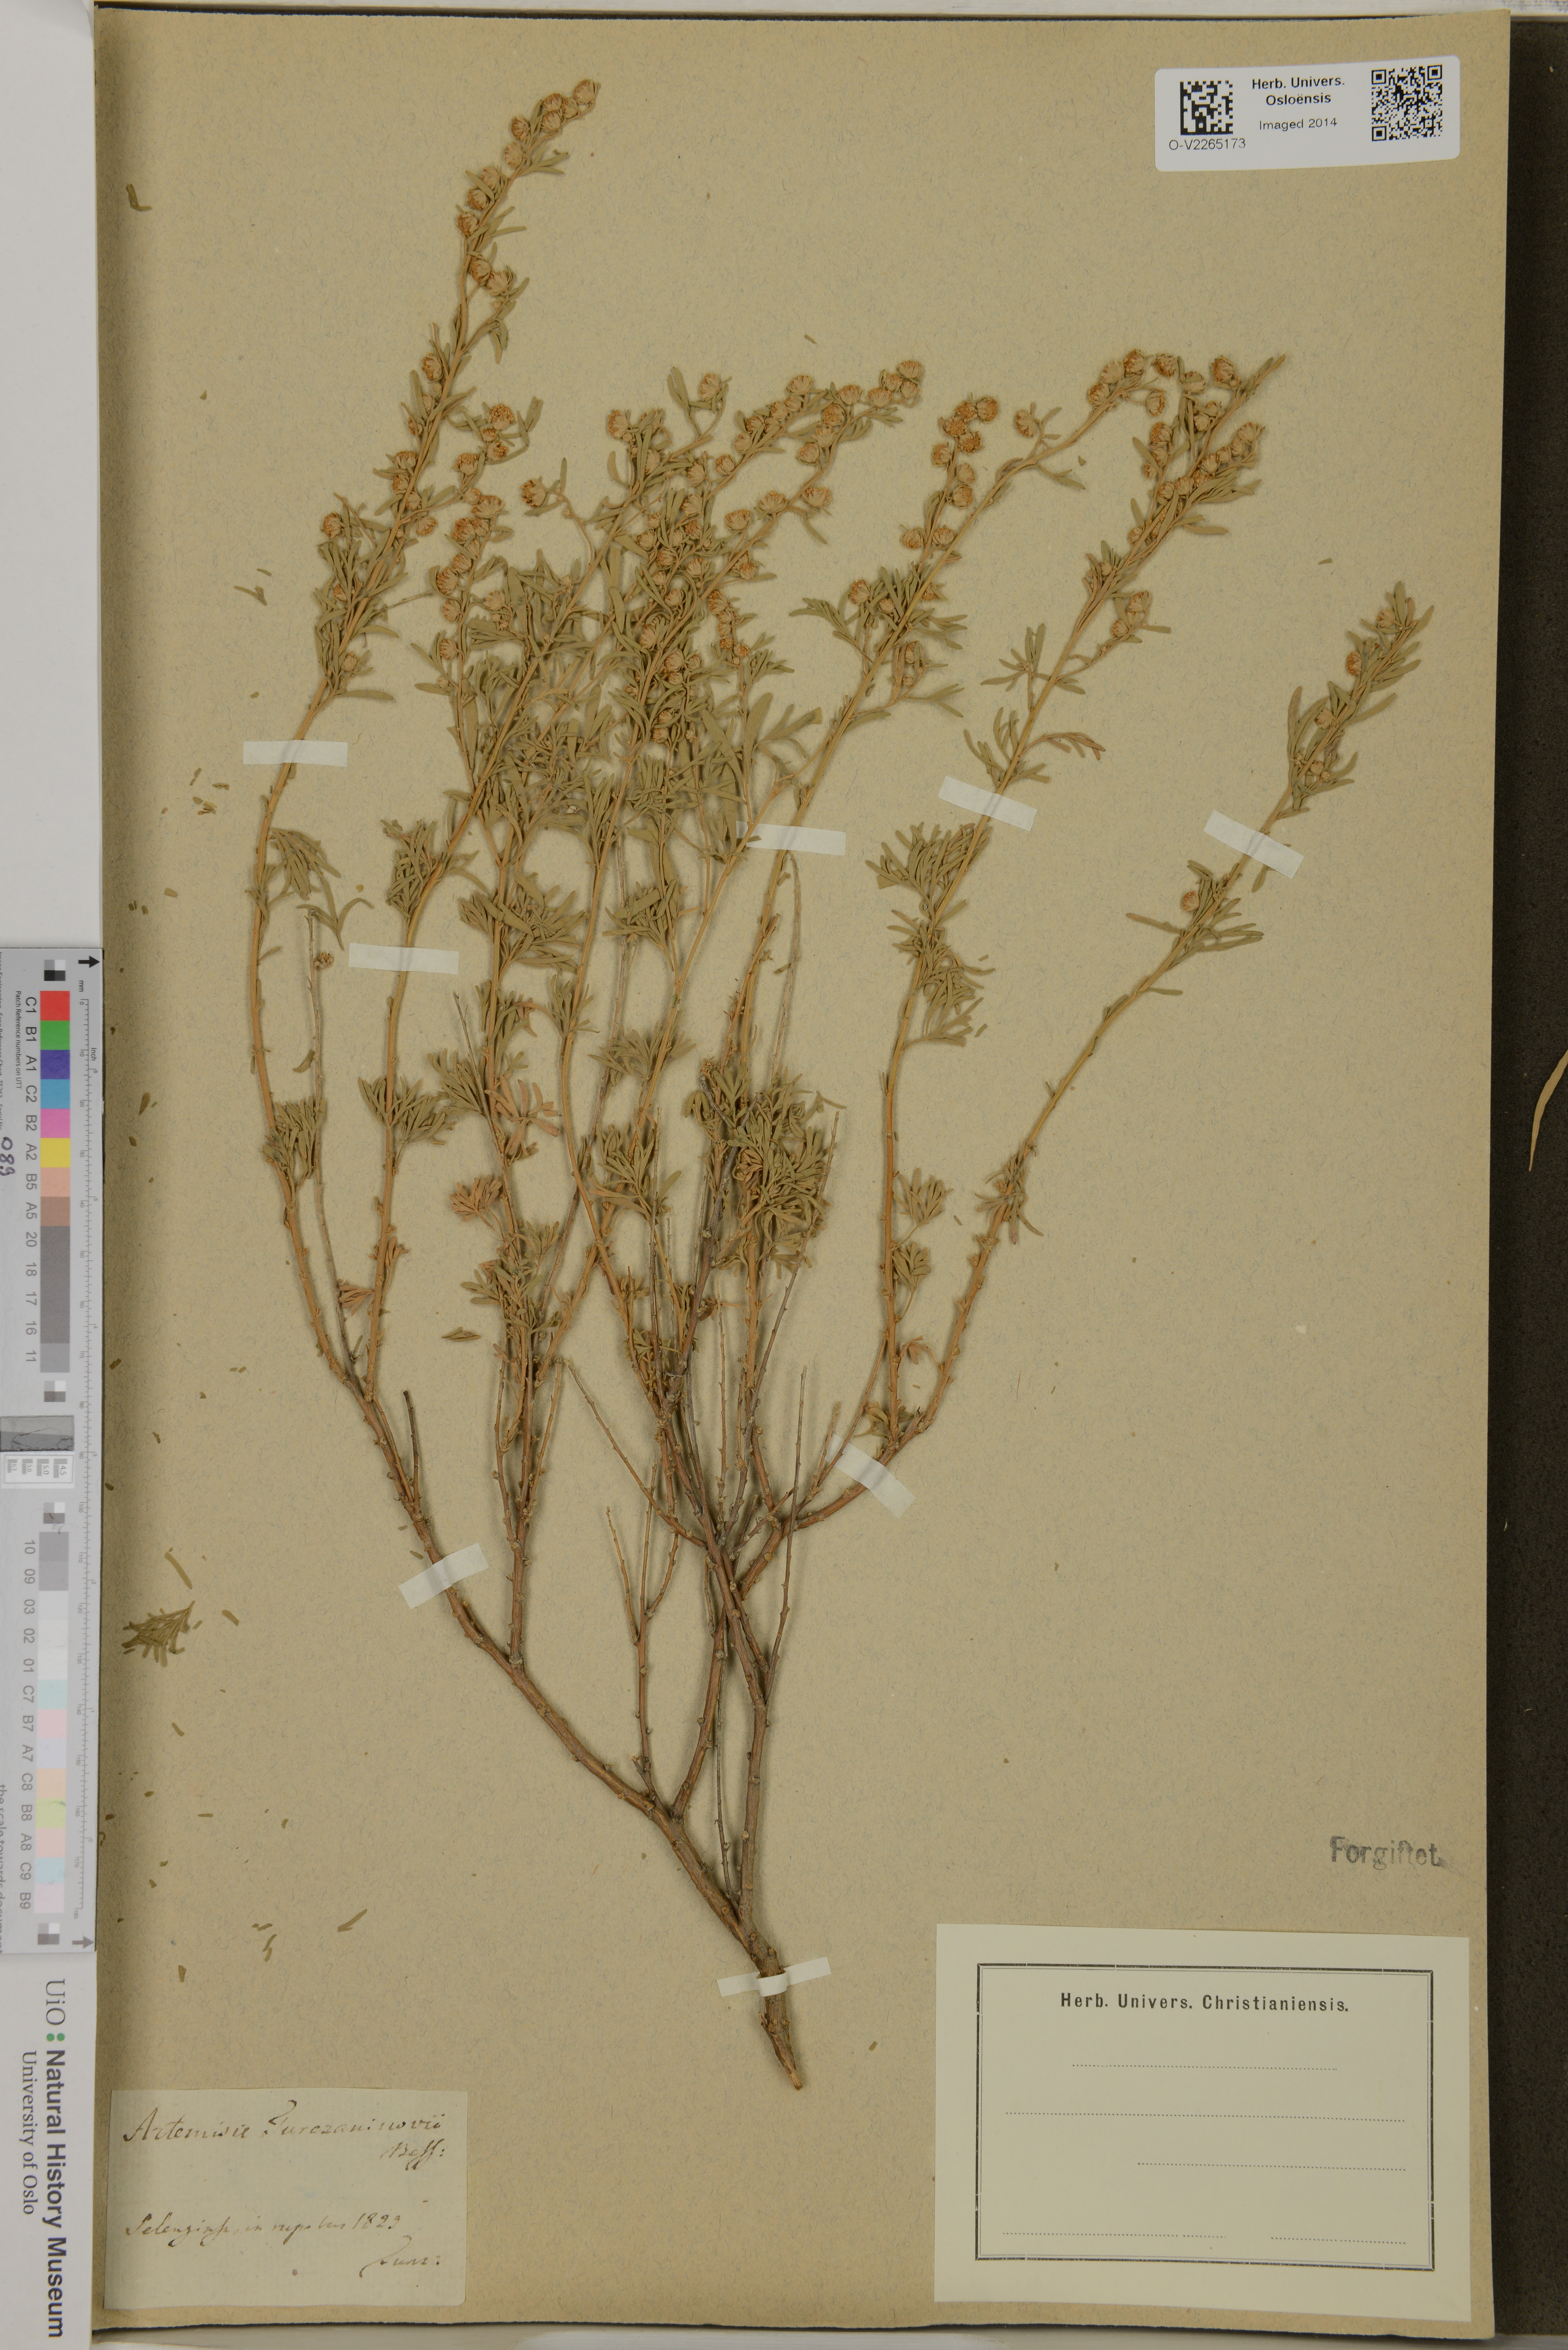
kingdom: Plantae
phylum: Tracheophyta
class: Magnoliopsida
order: Asterales
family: Asteraceae
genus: Artemisia
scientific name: Artemisia rutifolia
